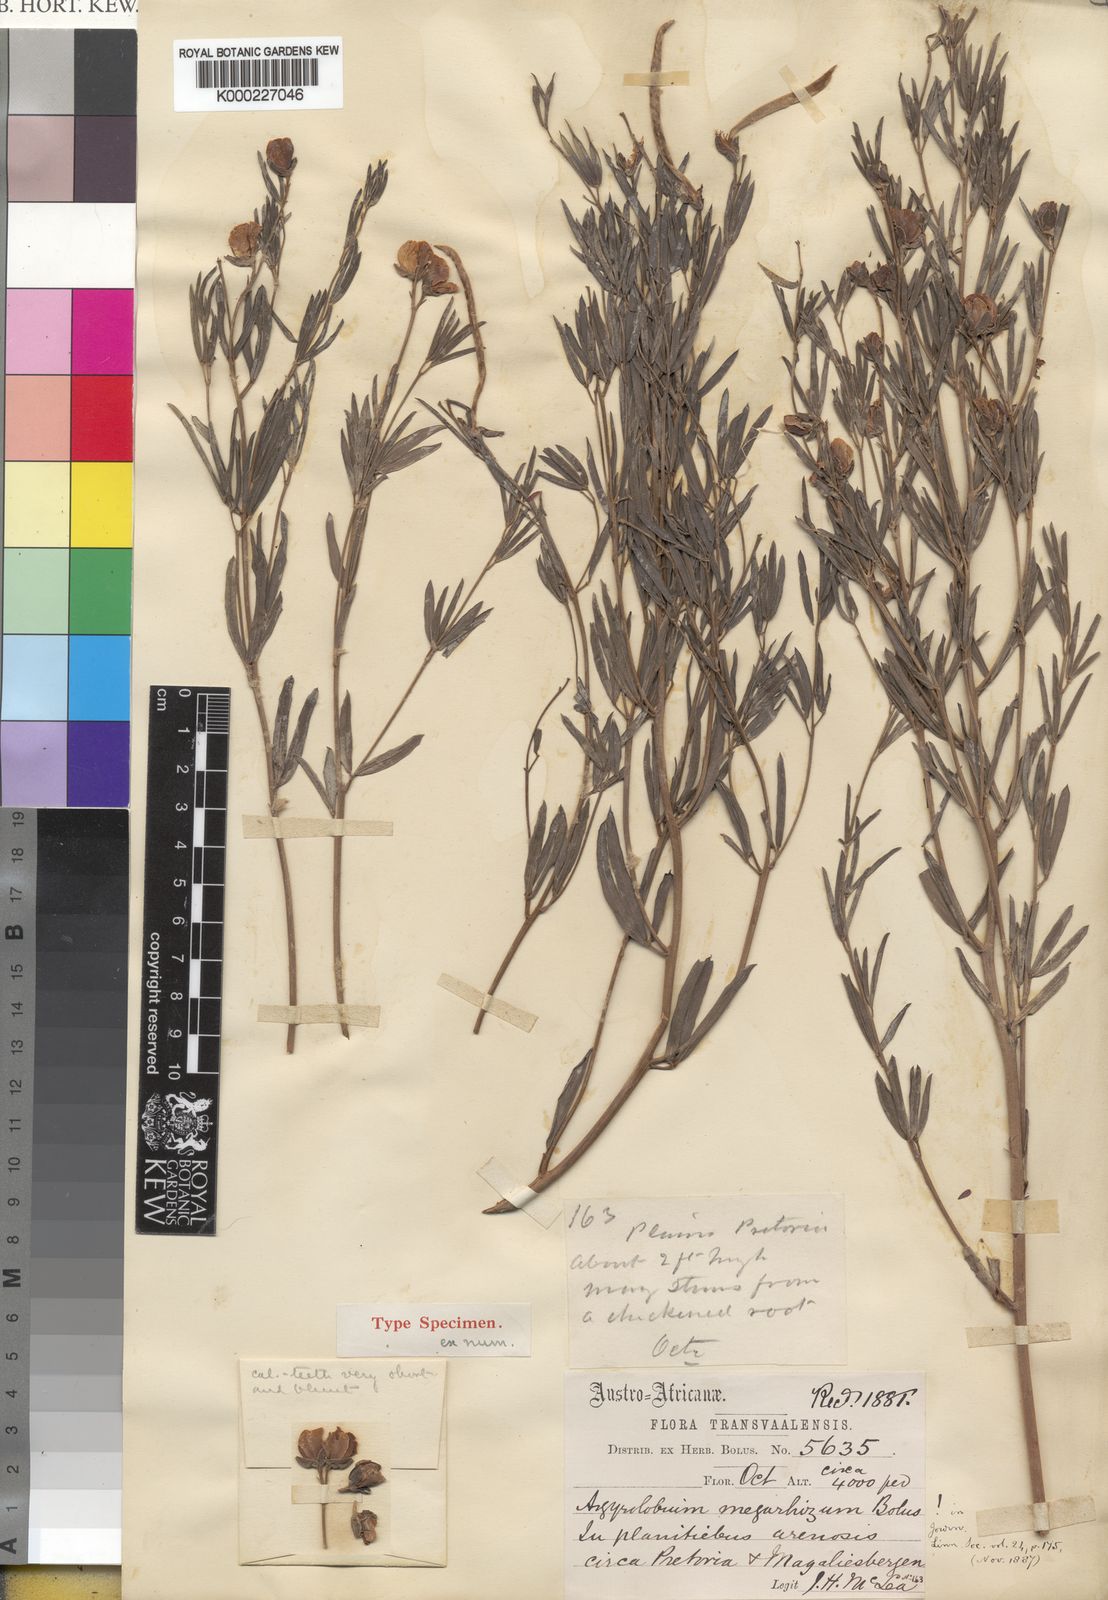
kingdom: Plantae
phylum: Tracheophyta
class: Magnoliopsida
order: Fabales
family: Fabaceae
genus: Argyrolobium
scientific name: Argyrolobium megarhizum
